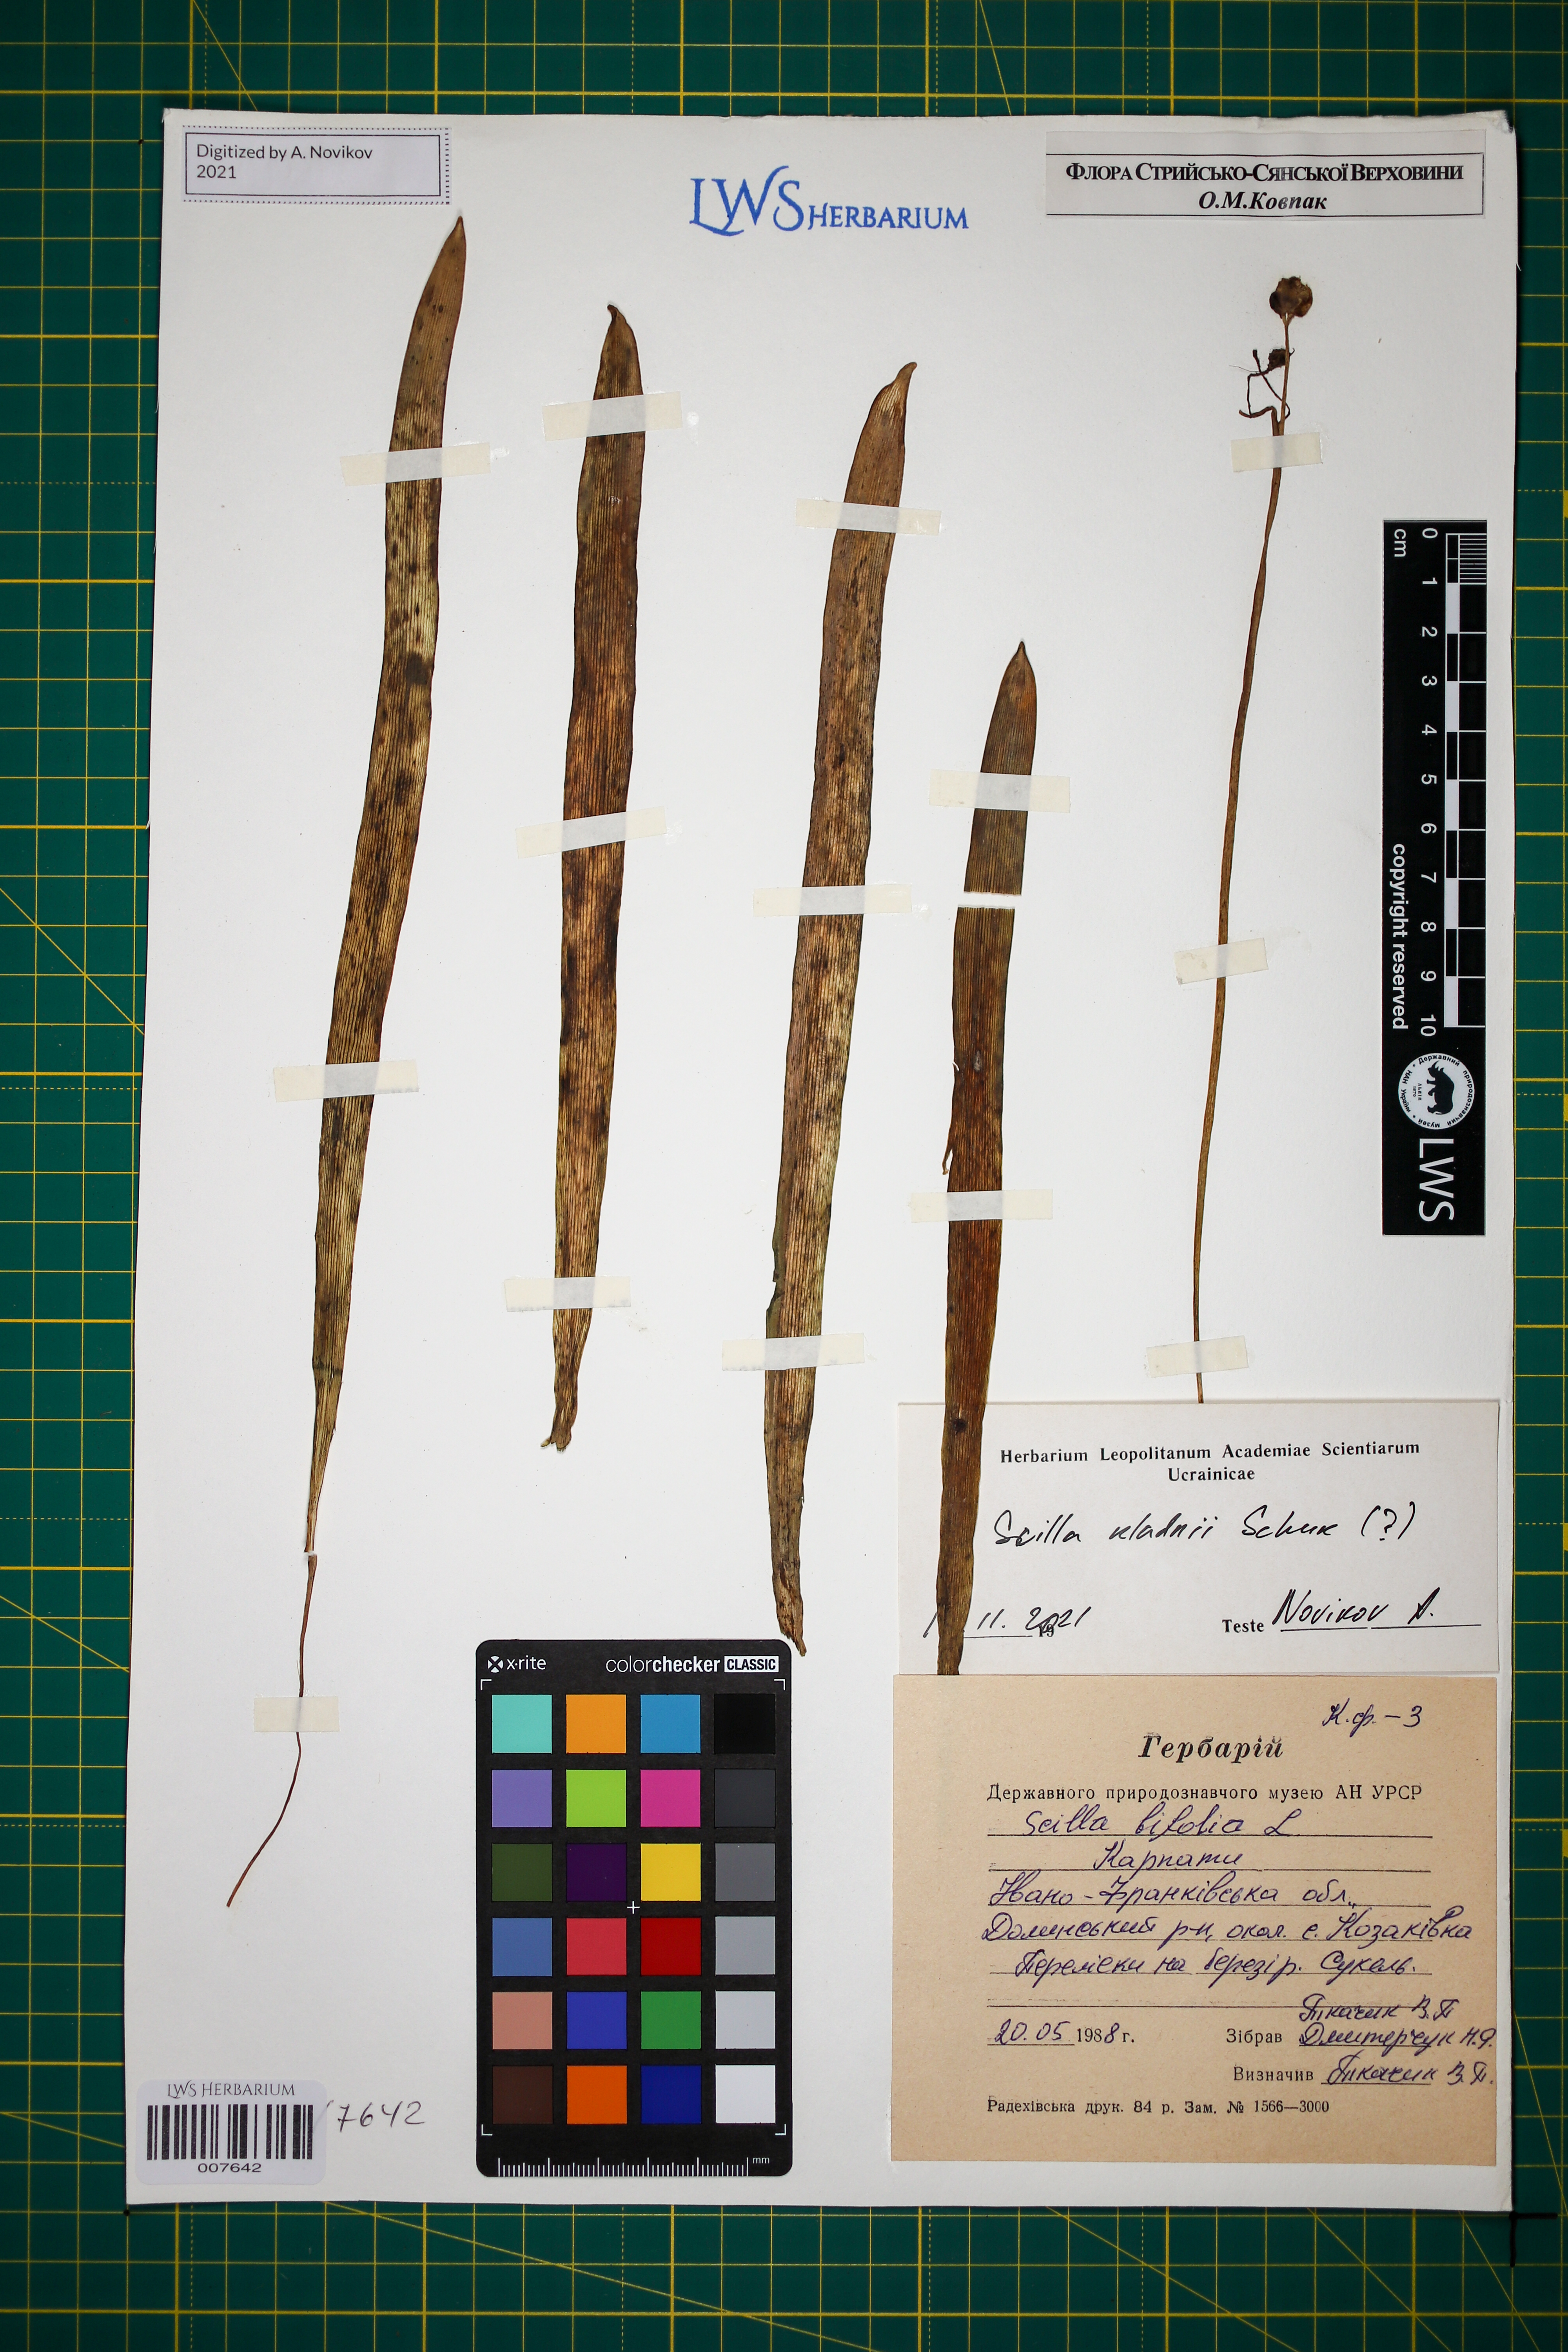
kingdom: Plantae
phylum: Tracheophyta
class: Liliopsida
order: Asparagales
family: Asparagaceae
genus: Scilla
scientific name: Scilla kladnii
